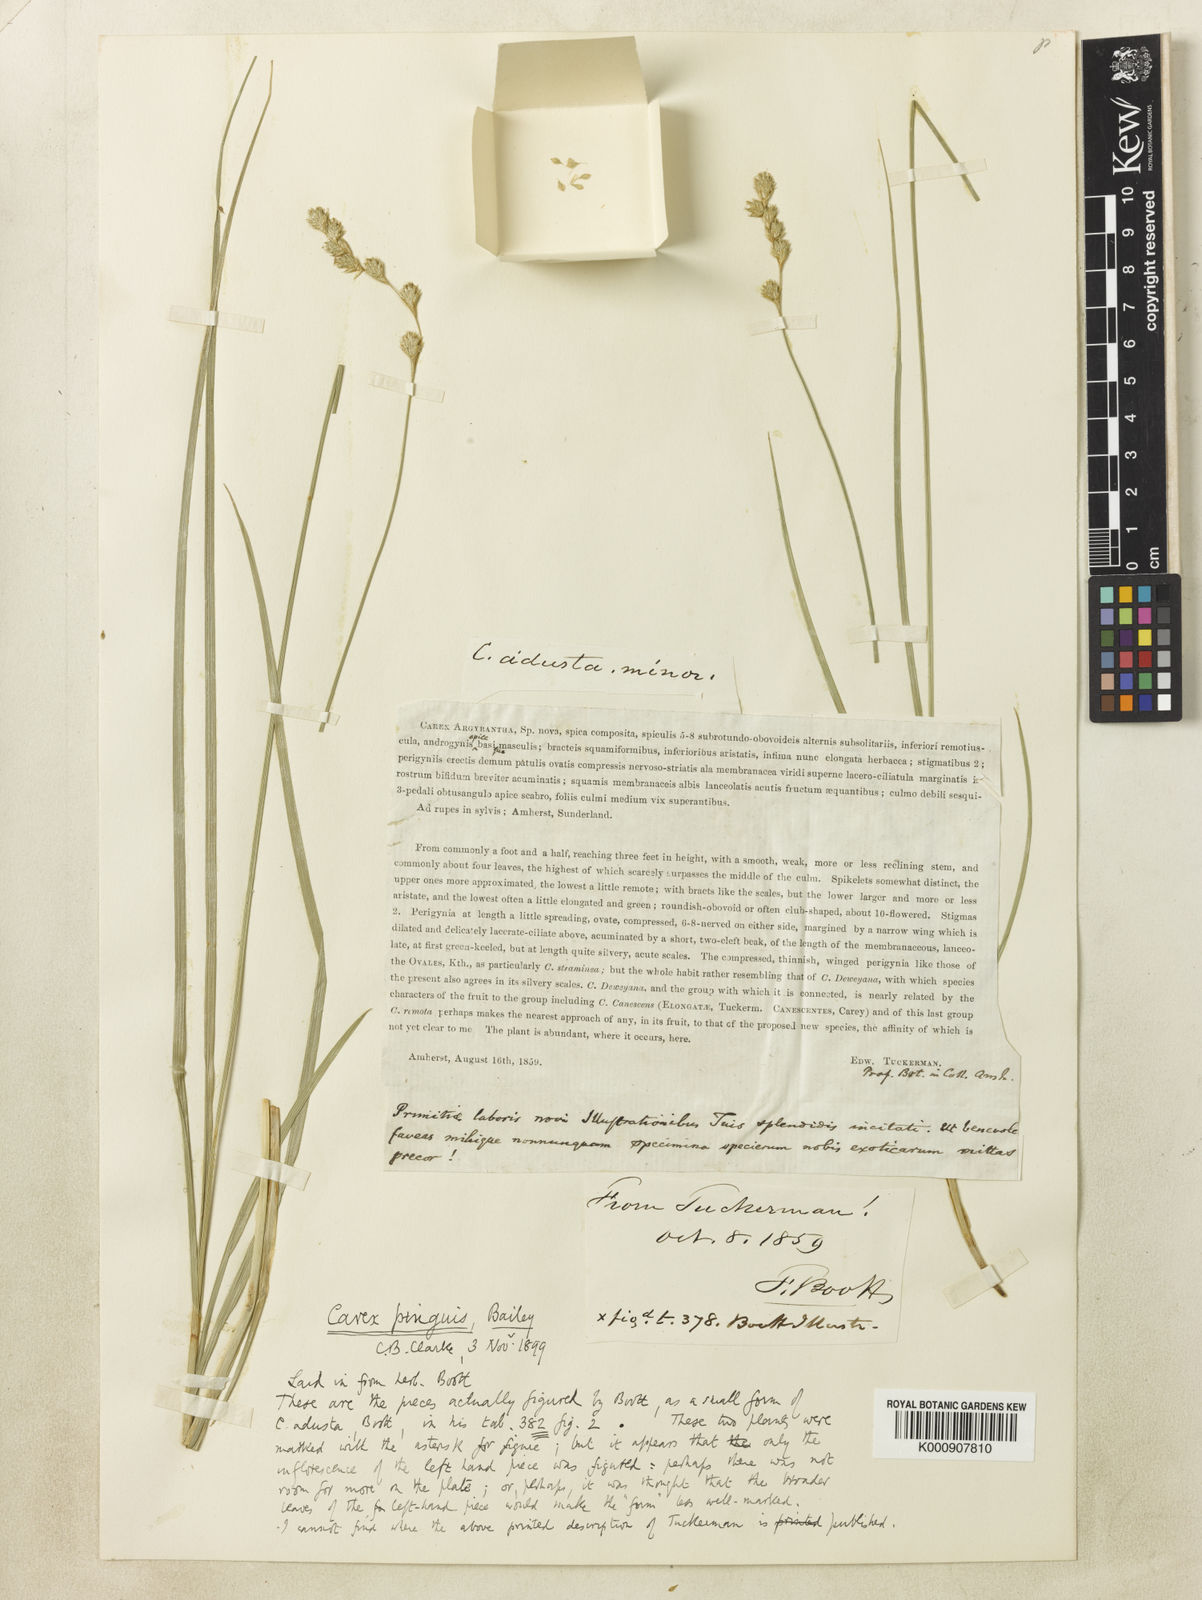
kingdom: Plantae
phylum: Tracheophyta
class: Liliopsida
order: Poales
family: Cyperaceae
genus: Carex
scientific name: Carex argyrantha
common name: Silvery-flowered sedge
